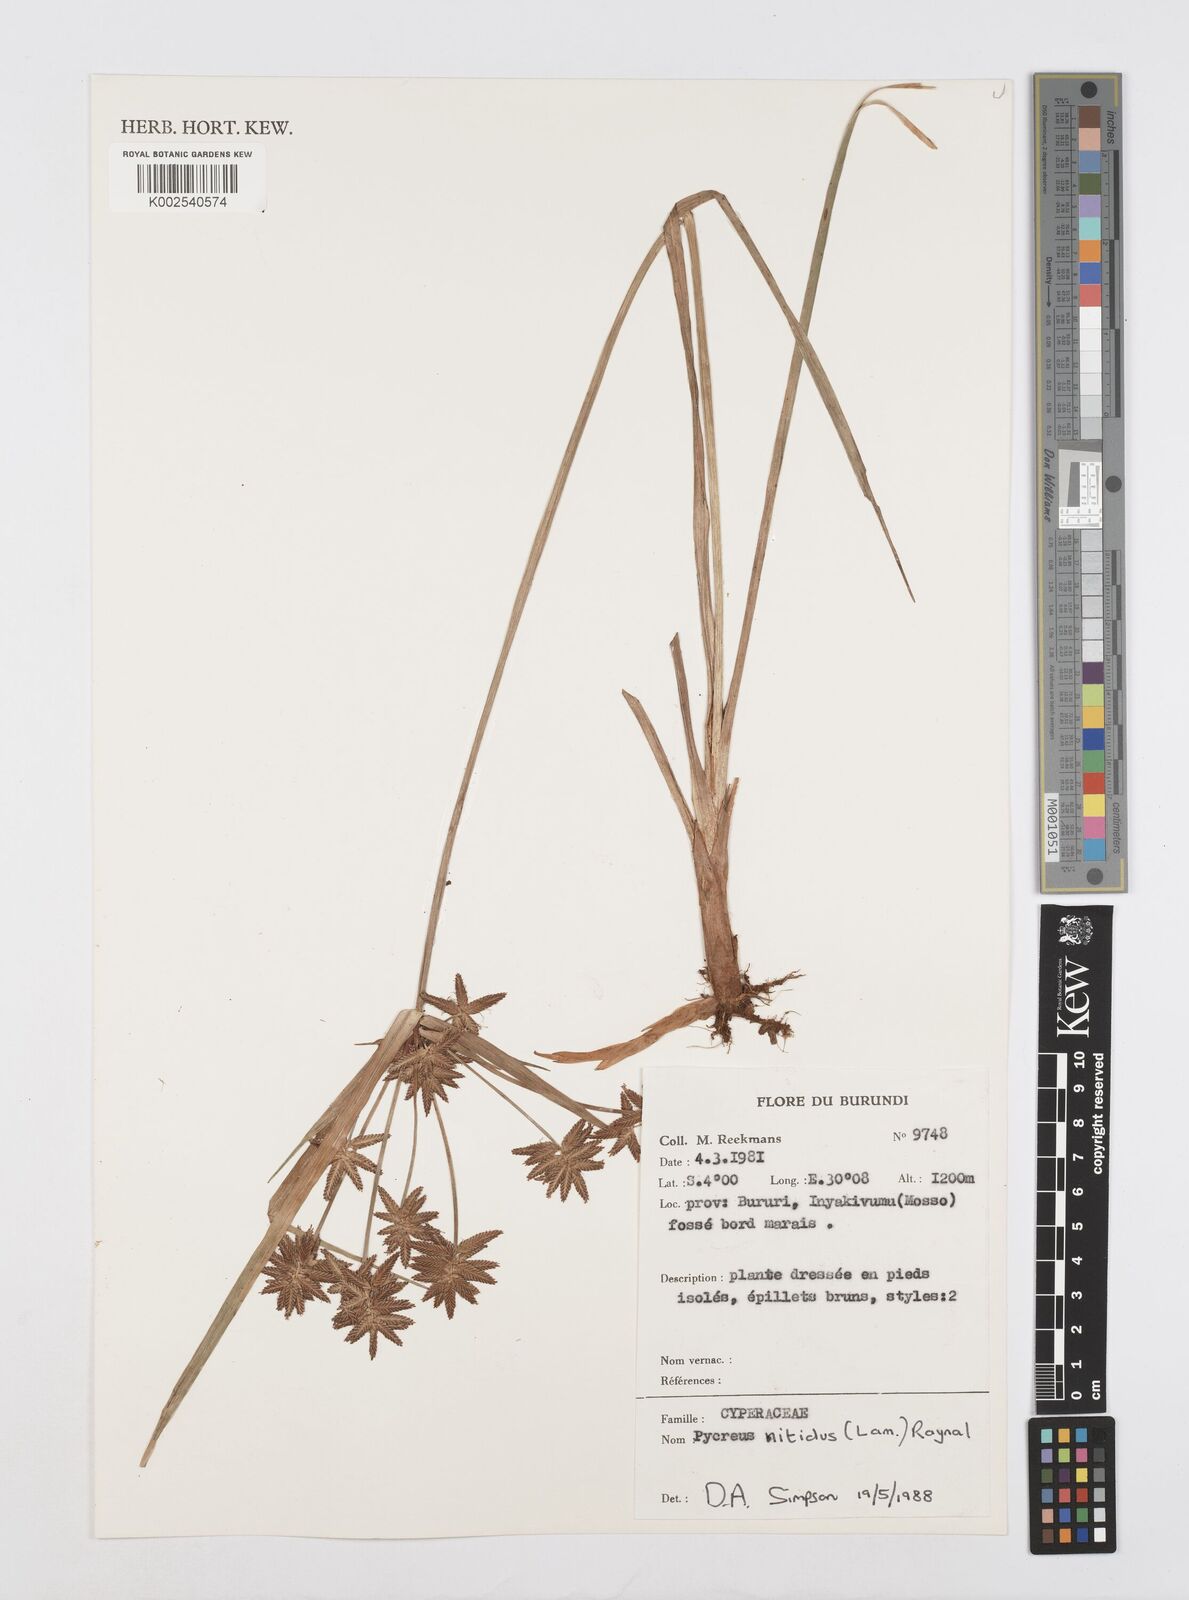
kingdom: Plantae
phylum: Tracheophyta
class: Liliopsida
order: Poales
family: Cyperaceae
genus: Cyperus
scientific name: Cyperus nitidus
